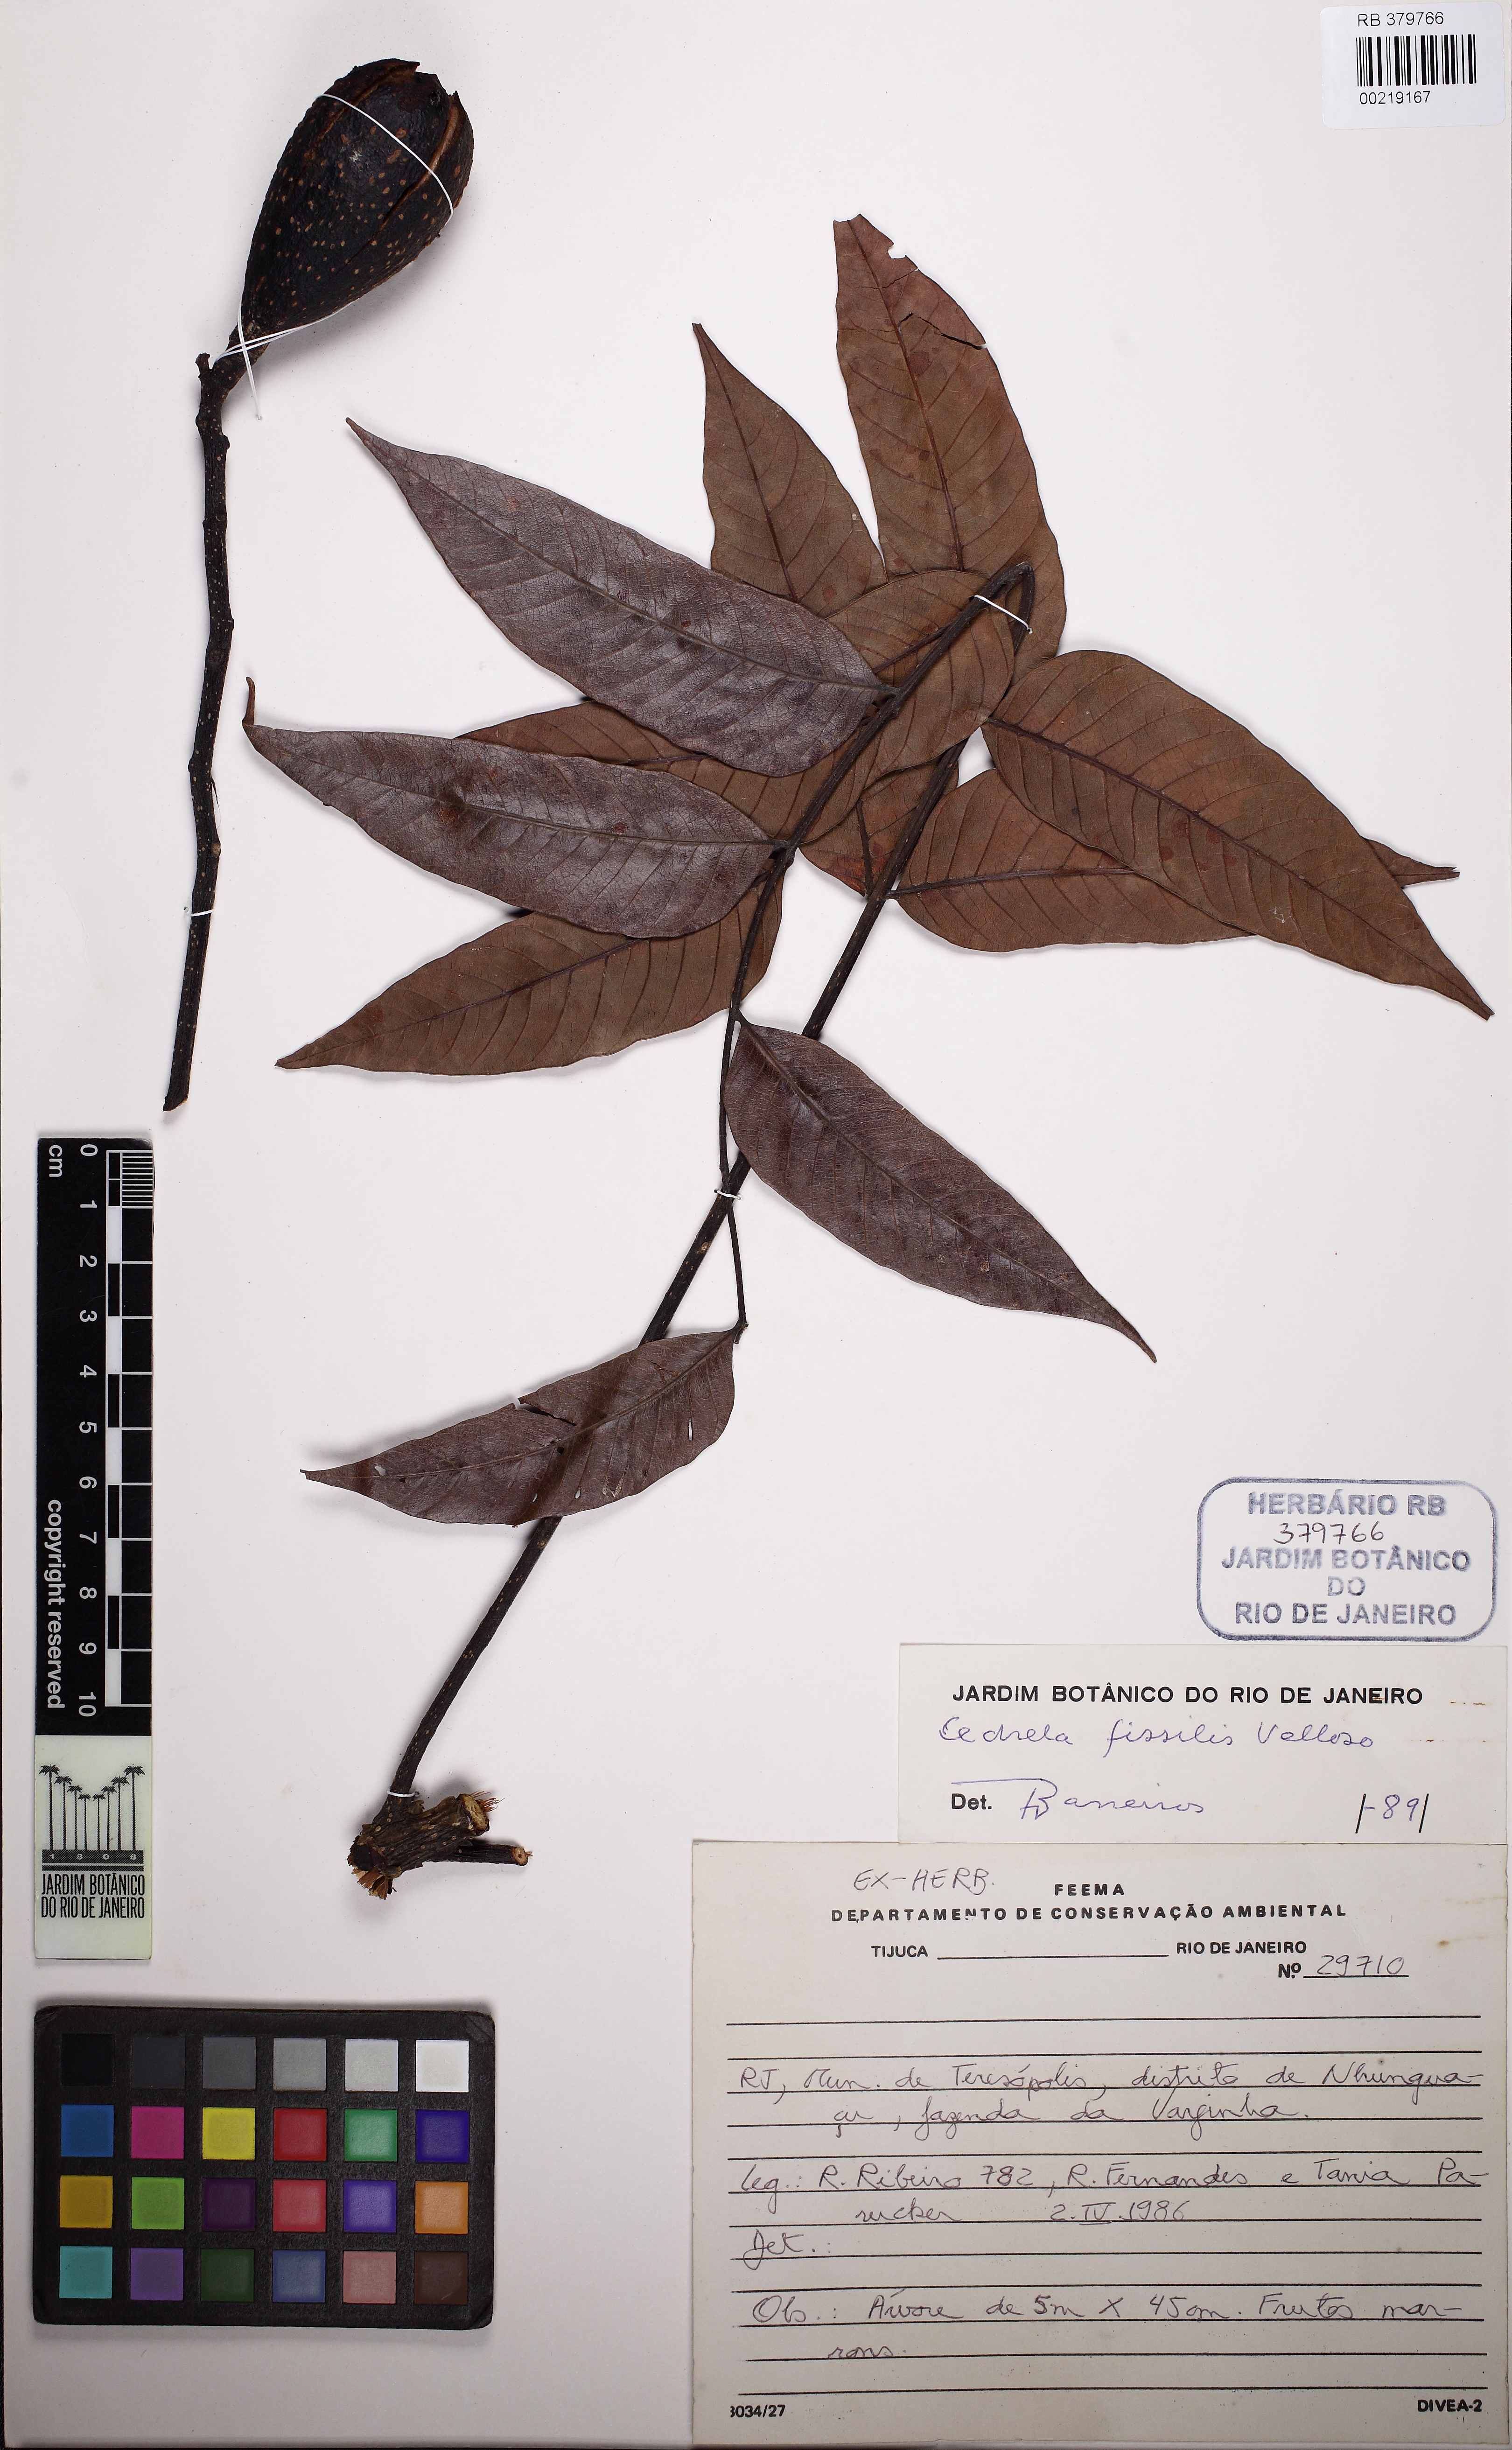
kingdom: Plantae
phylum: Tracheophyta
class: Magnoliopsida
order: Sapindales
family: Meliaceae
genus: Cedrela
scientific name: Cedrela fissilis
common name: Argentine cedar
